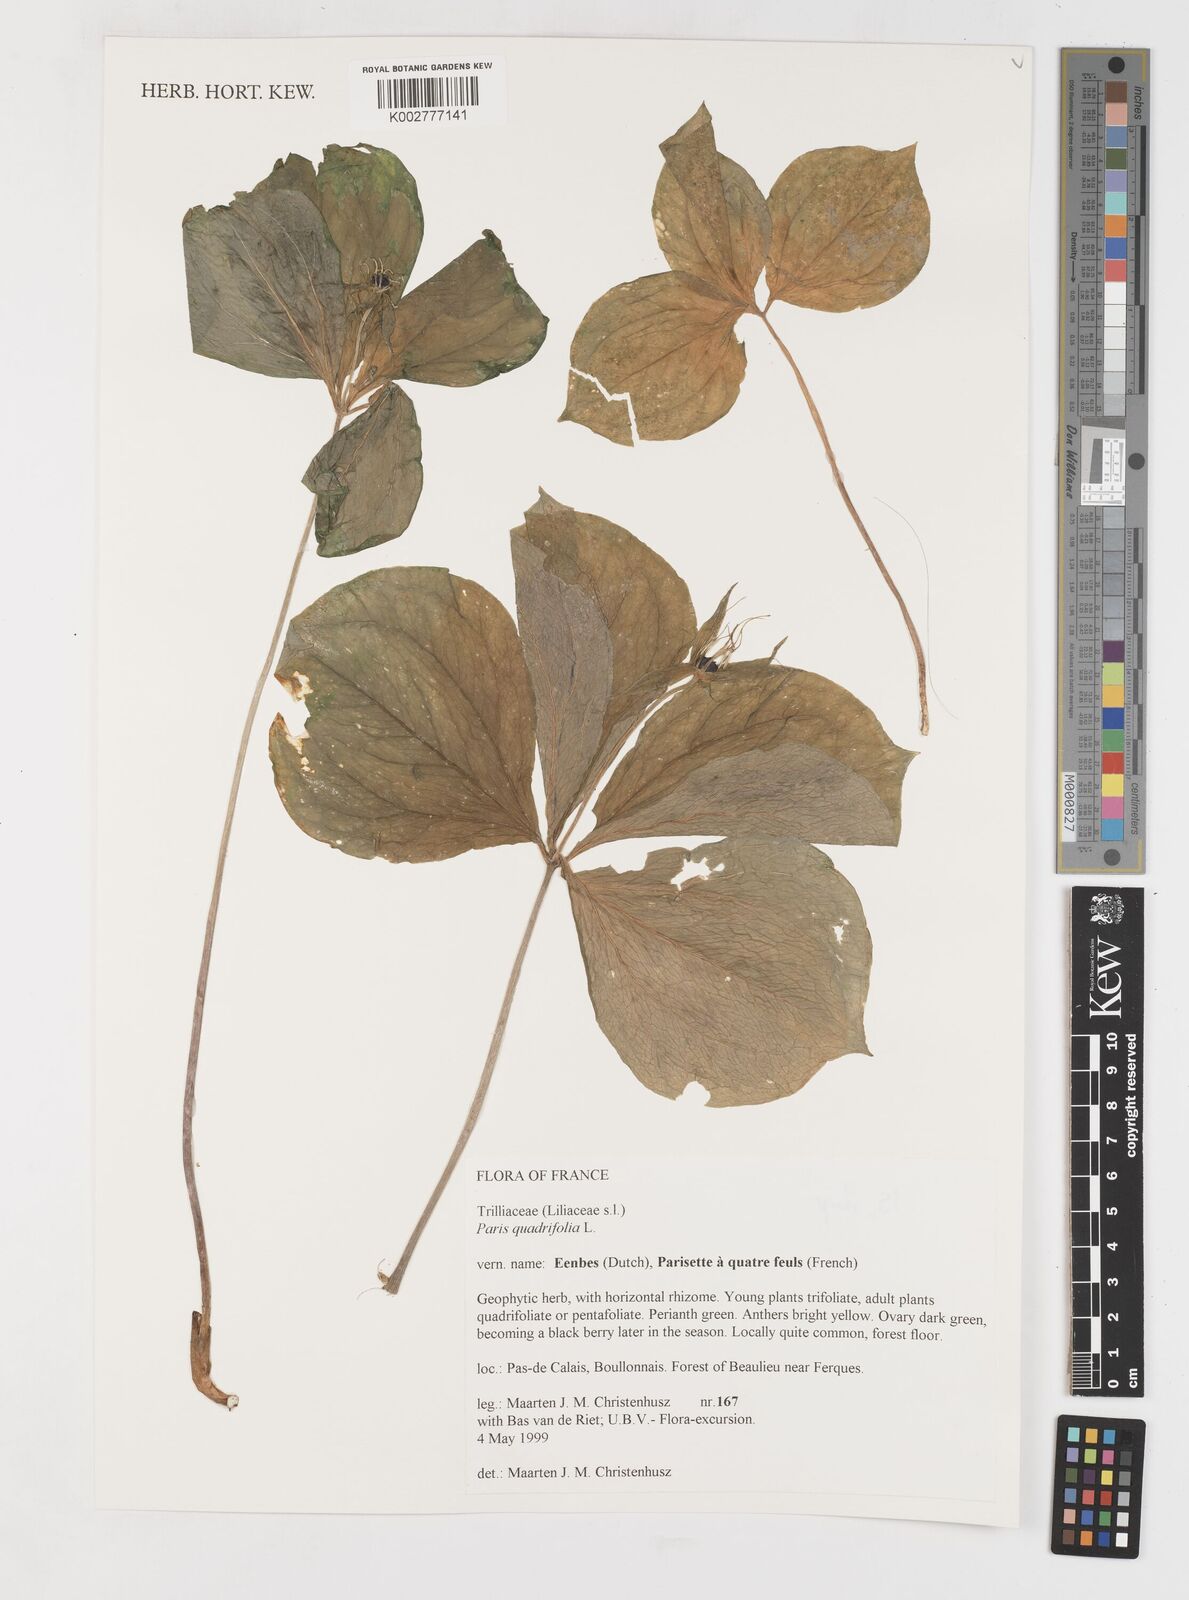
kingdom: Plantae
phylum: Tracheophyta
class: Liliopsida
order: Liliales
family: Melanthiaceae
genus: Paris
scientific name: Paris quadrifolia
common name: Herb-paris
